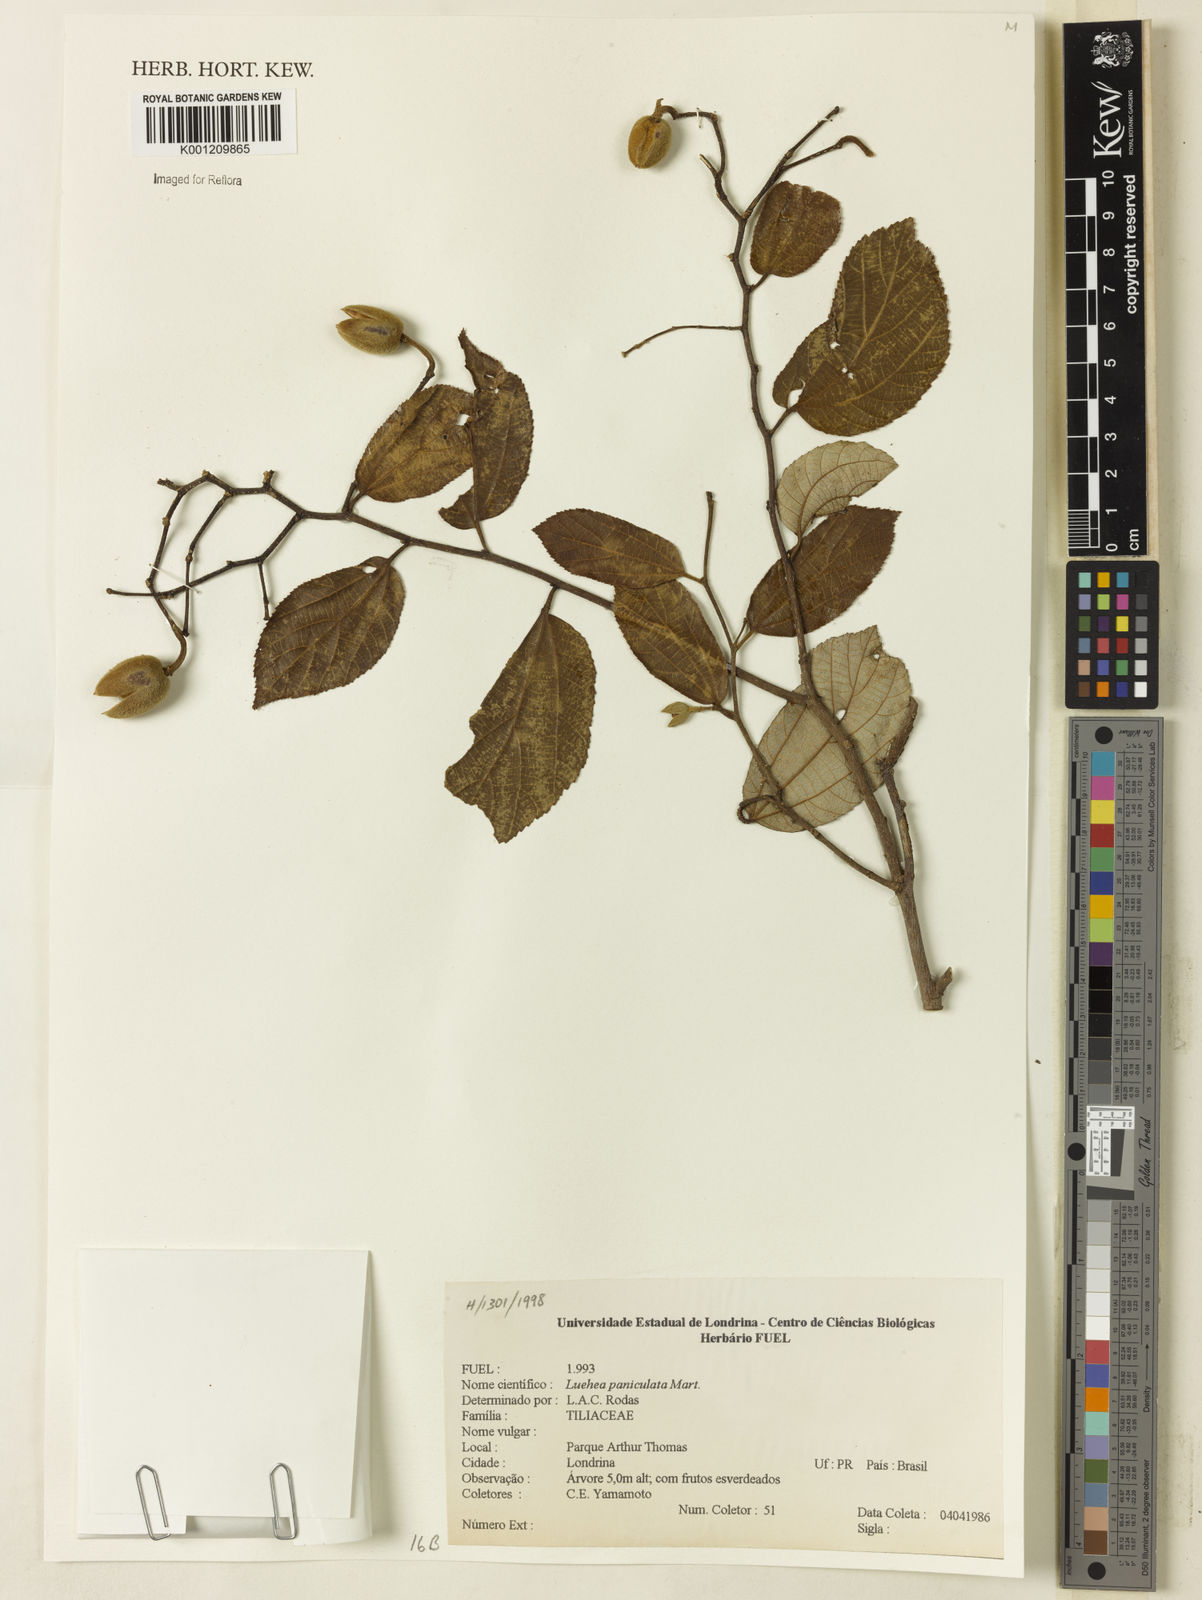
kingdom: Plantae
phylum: Tracheophyta
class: Magnoliopsida
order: Malvales
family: Malvaceae
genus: Luehea
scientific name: Luehea paniculata
